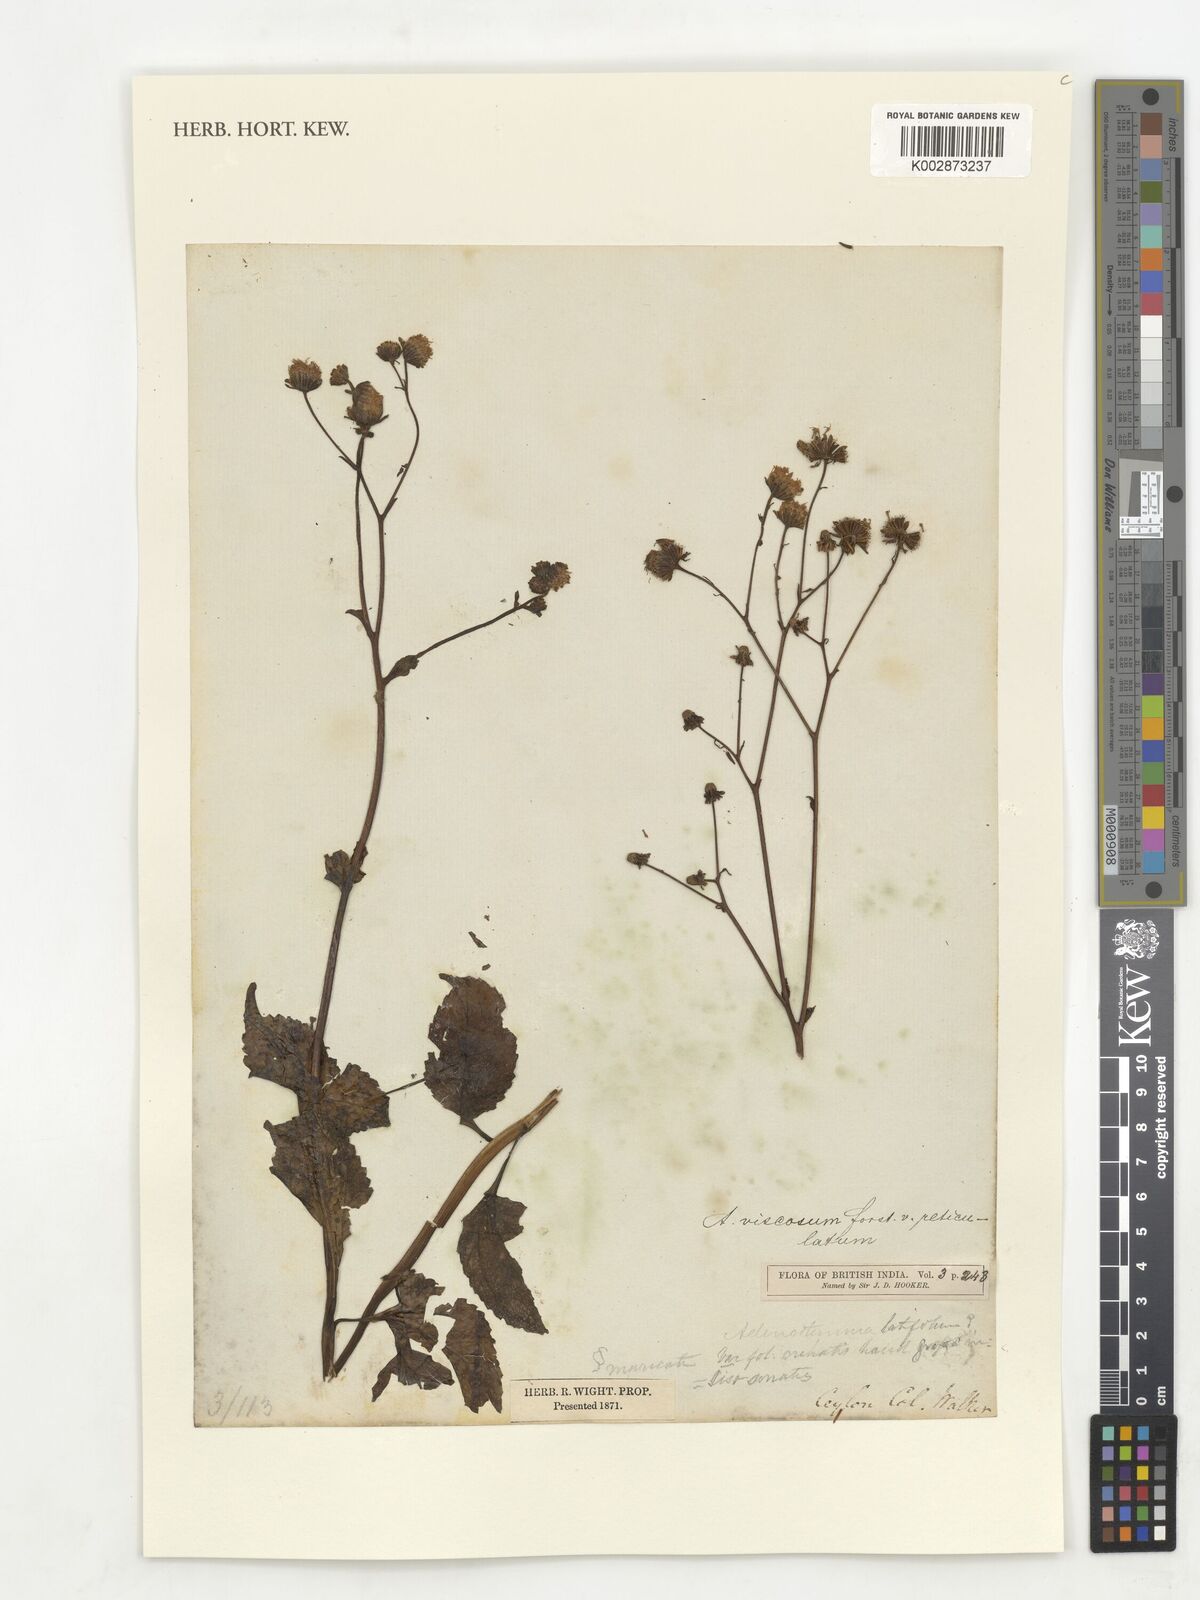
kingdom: Plantae
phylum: Tracheophyta
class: Magnoliopsida
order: Asterales
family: Asteraceae
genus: Adenostemma
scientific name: Adenostemma viscosum
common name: Dungweed
